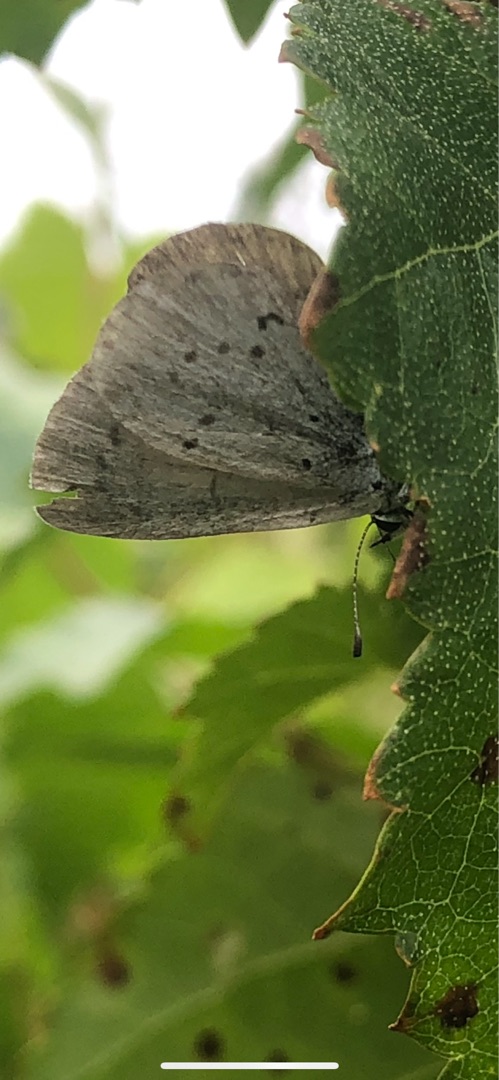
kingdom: Animalia
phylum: Arthropoda
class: Insecta
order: Lepidoptera
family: Lycaenidae
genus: Celastrina
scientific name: Celastrina argiolus
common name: Skovblåfugl
